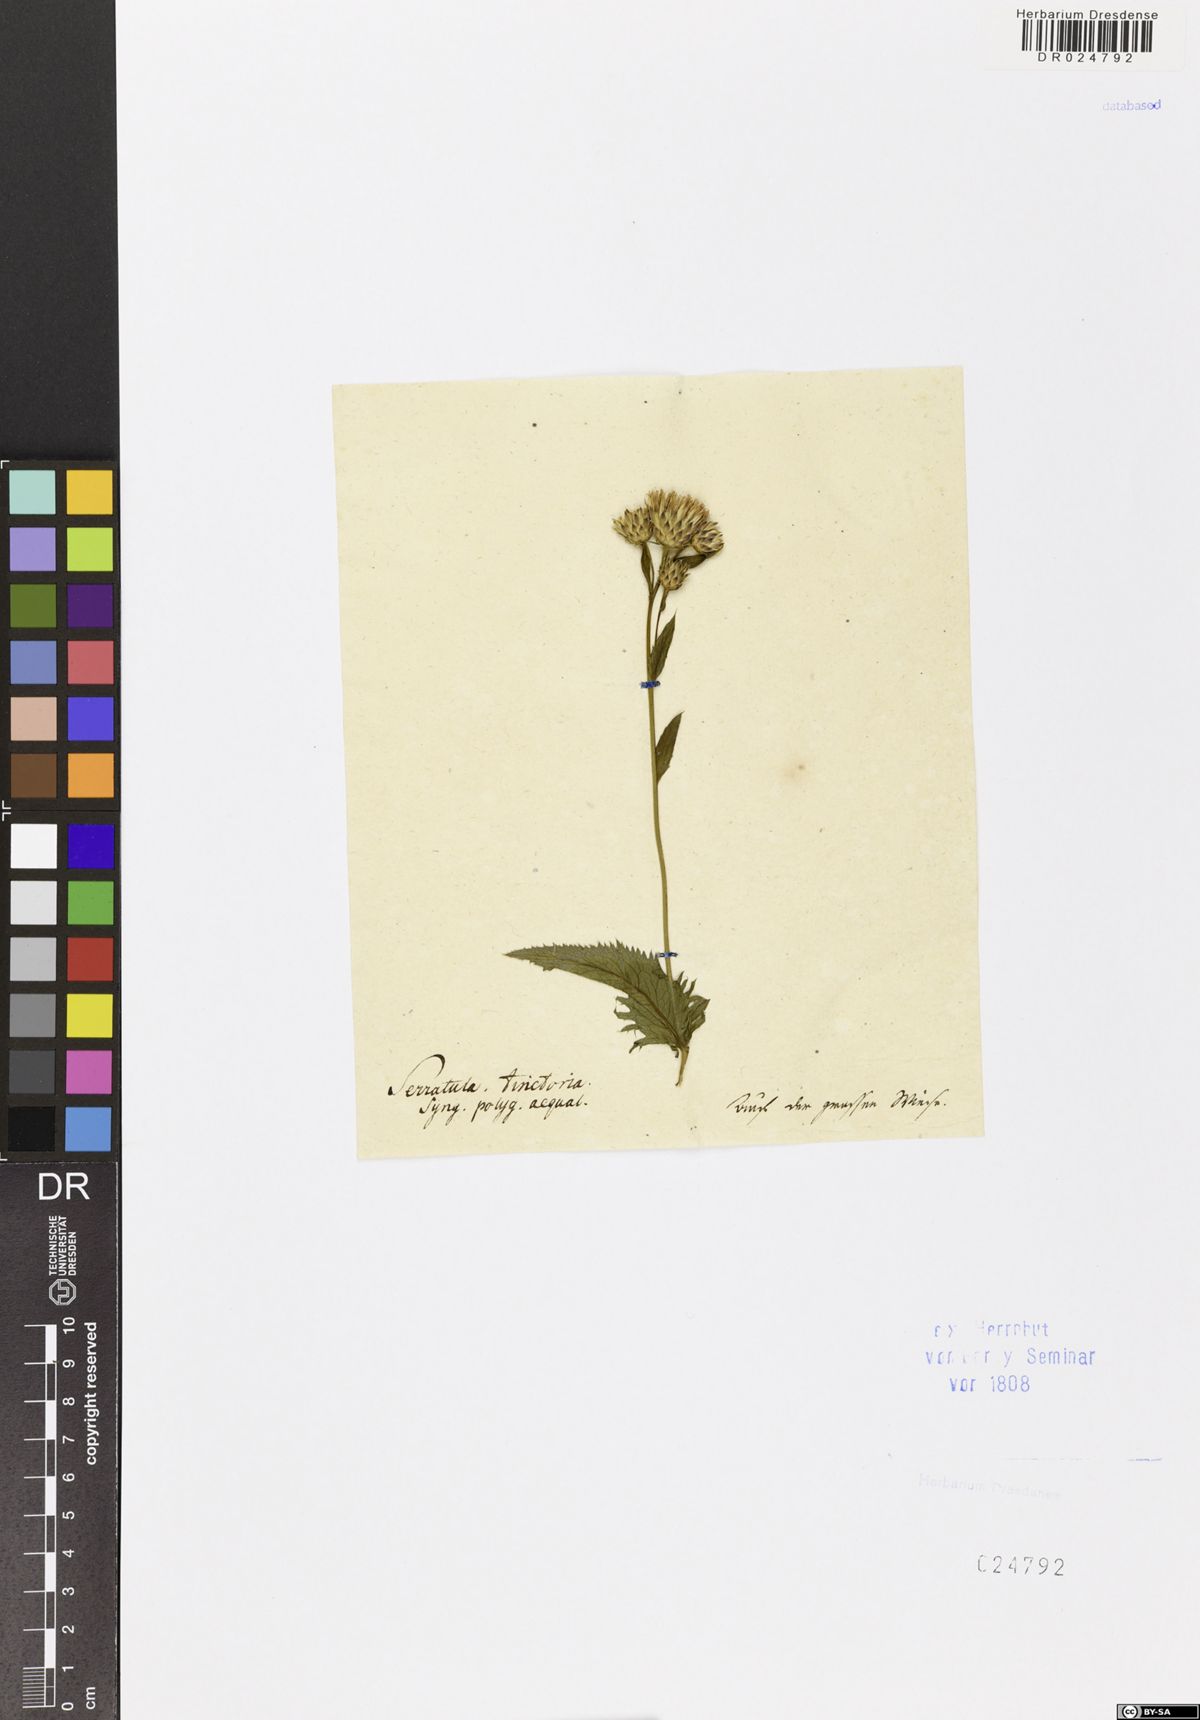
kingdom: Plantae
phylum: Tracheophyta
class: Magnoliopsida
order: Asterales
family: Asteraceae
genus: Serratula
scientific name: Serratula tinctoria
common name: Saw-wort
